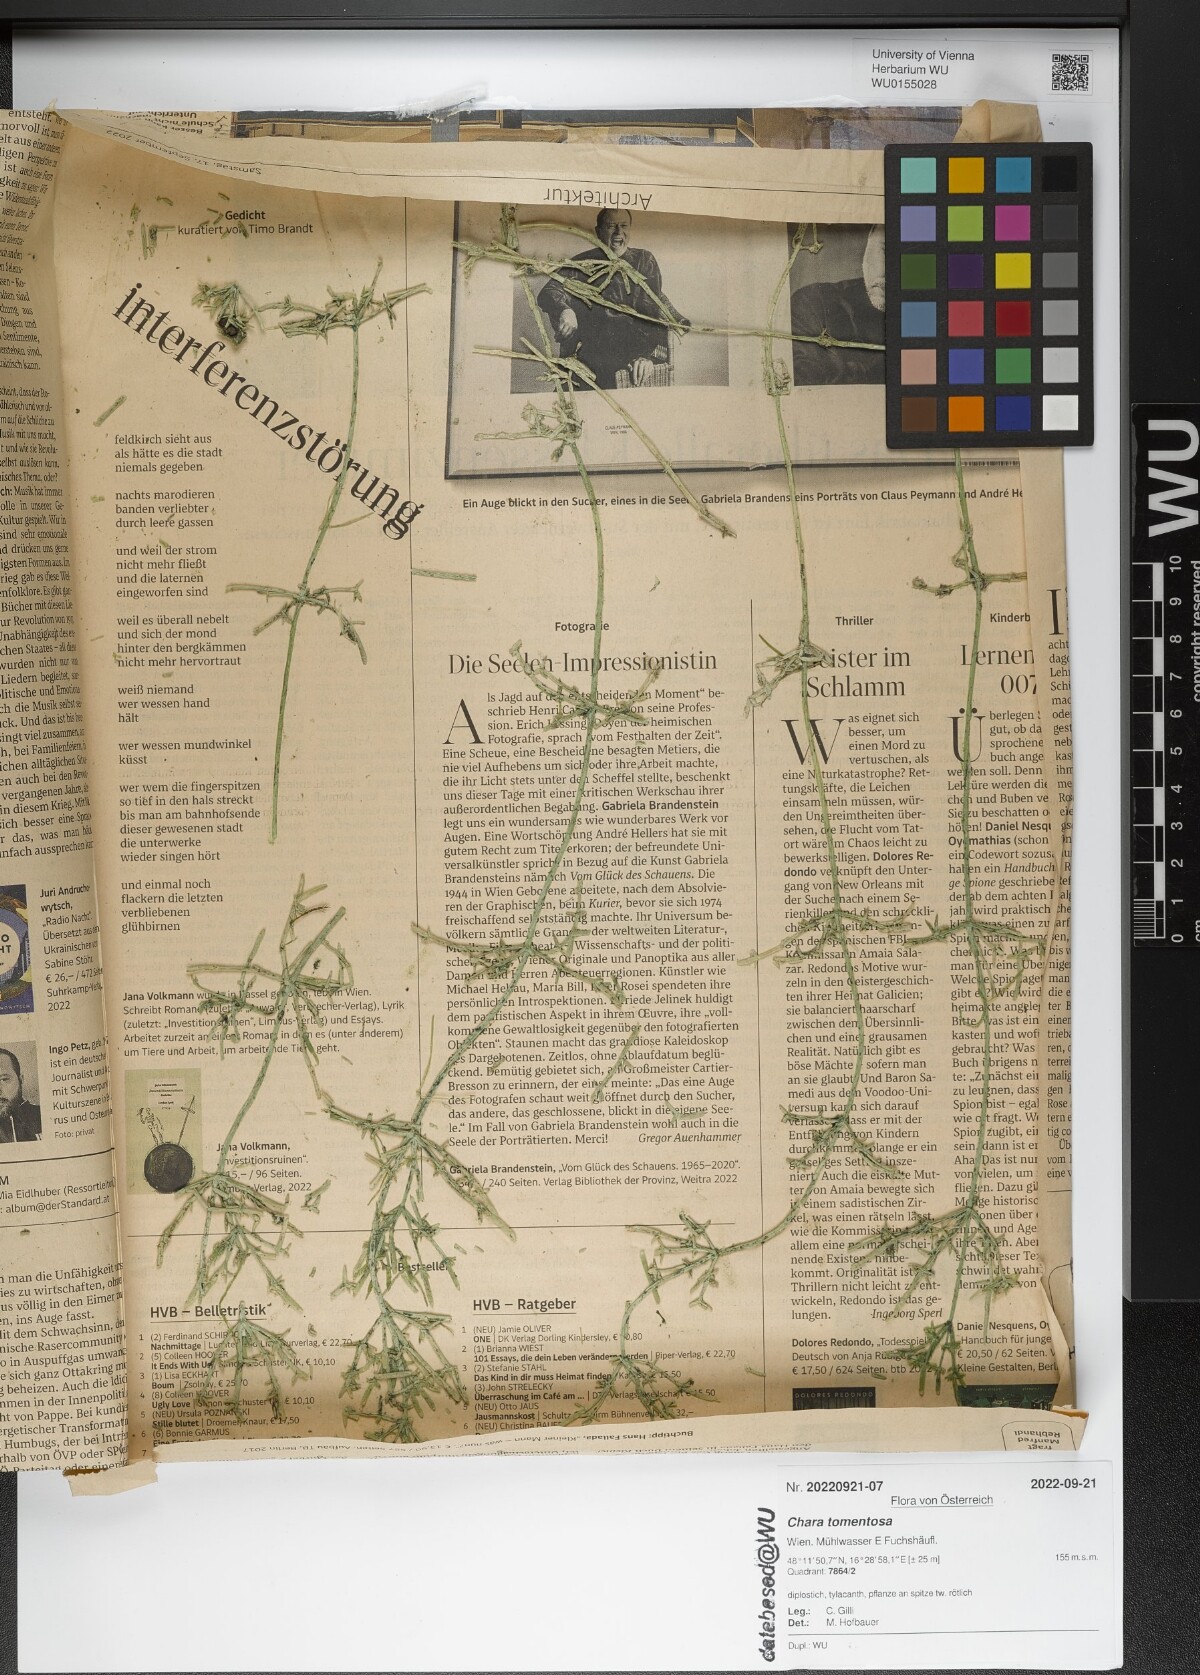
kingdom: Plantae
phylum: Charophyta
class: Charophyceae
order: Charales
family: Characeae
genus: Chara
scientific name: Chara tomentosa
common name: Coral stonewort
